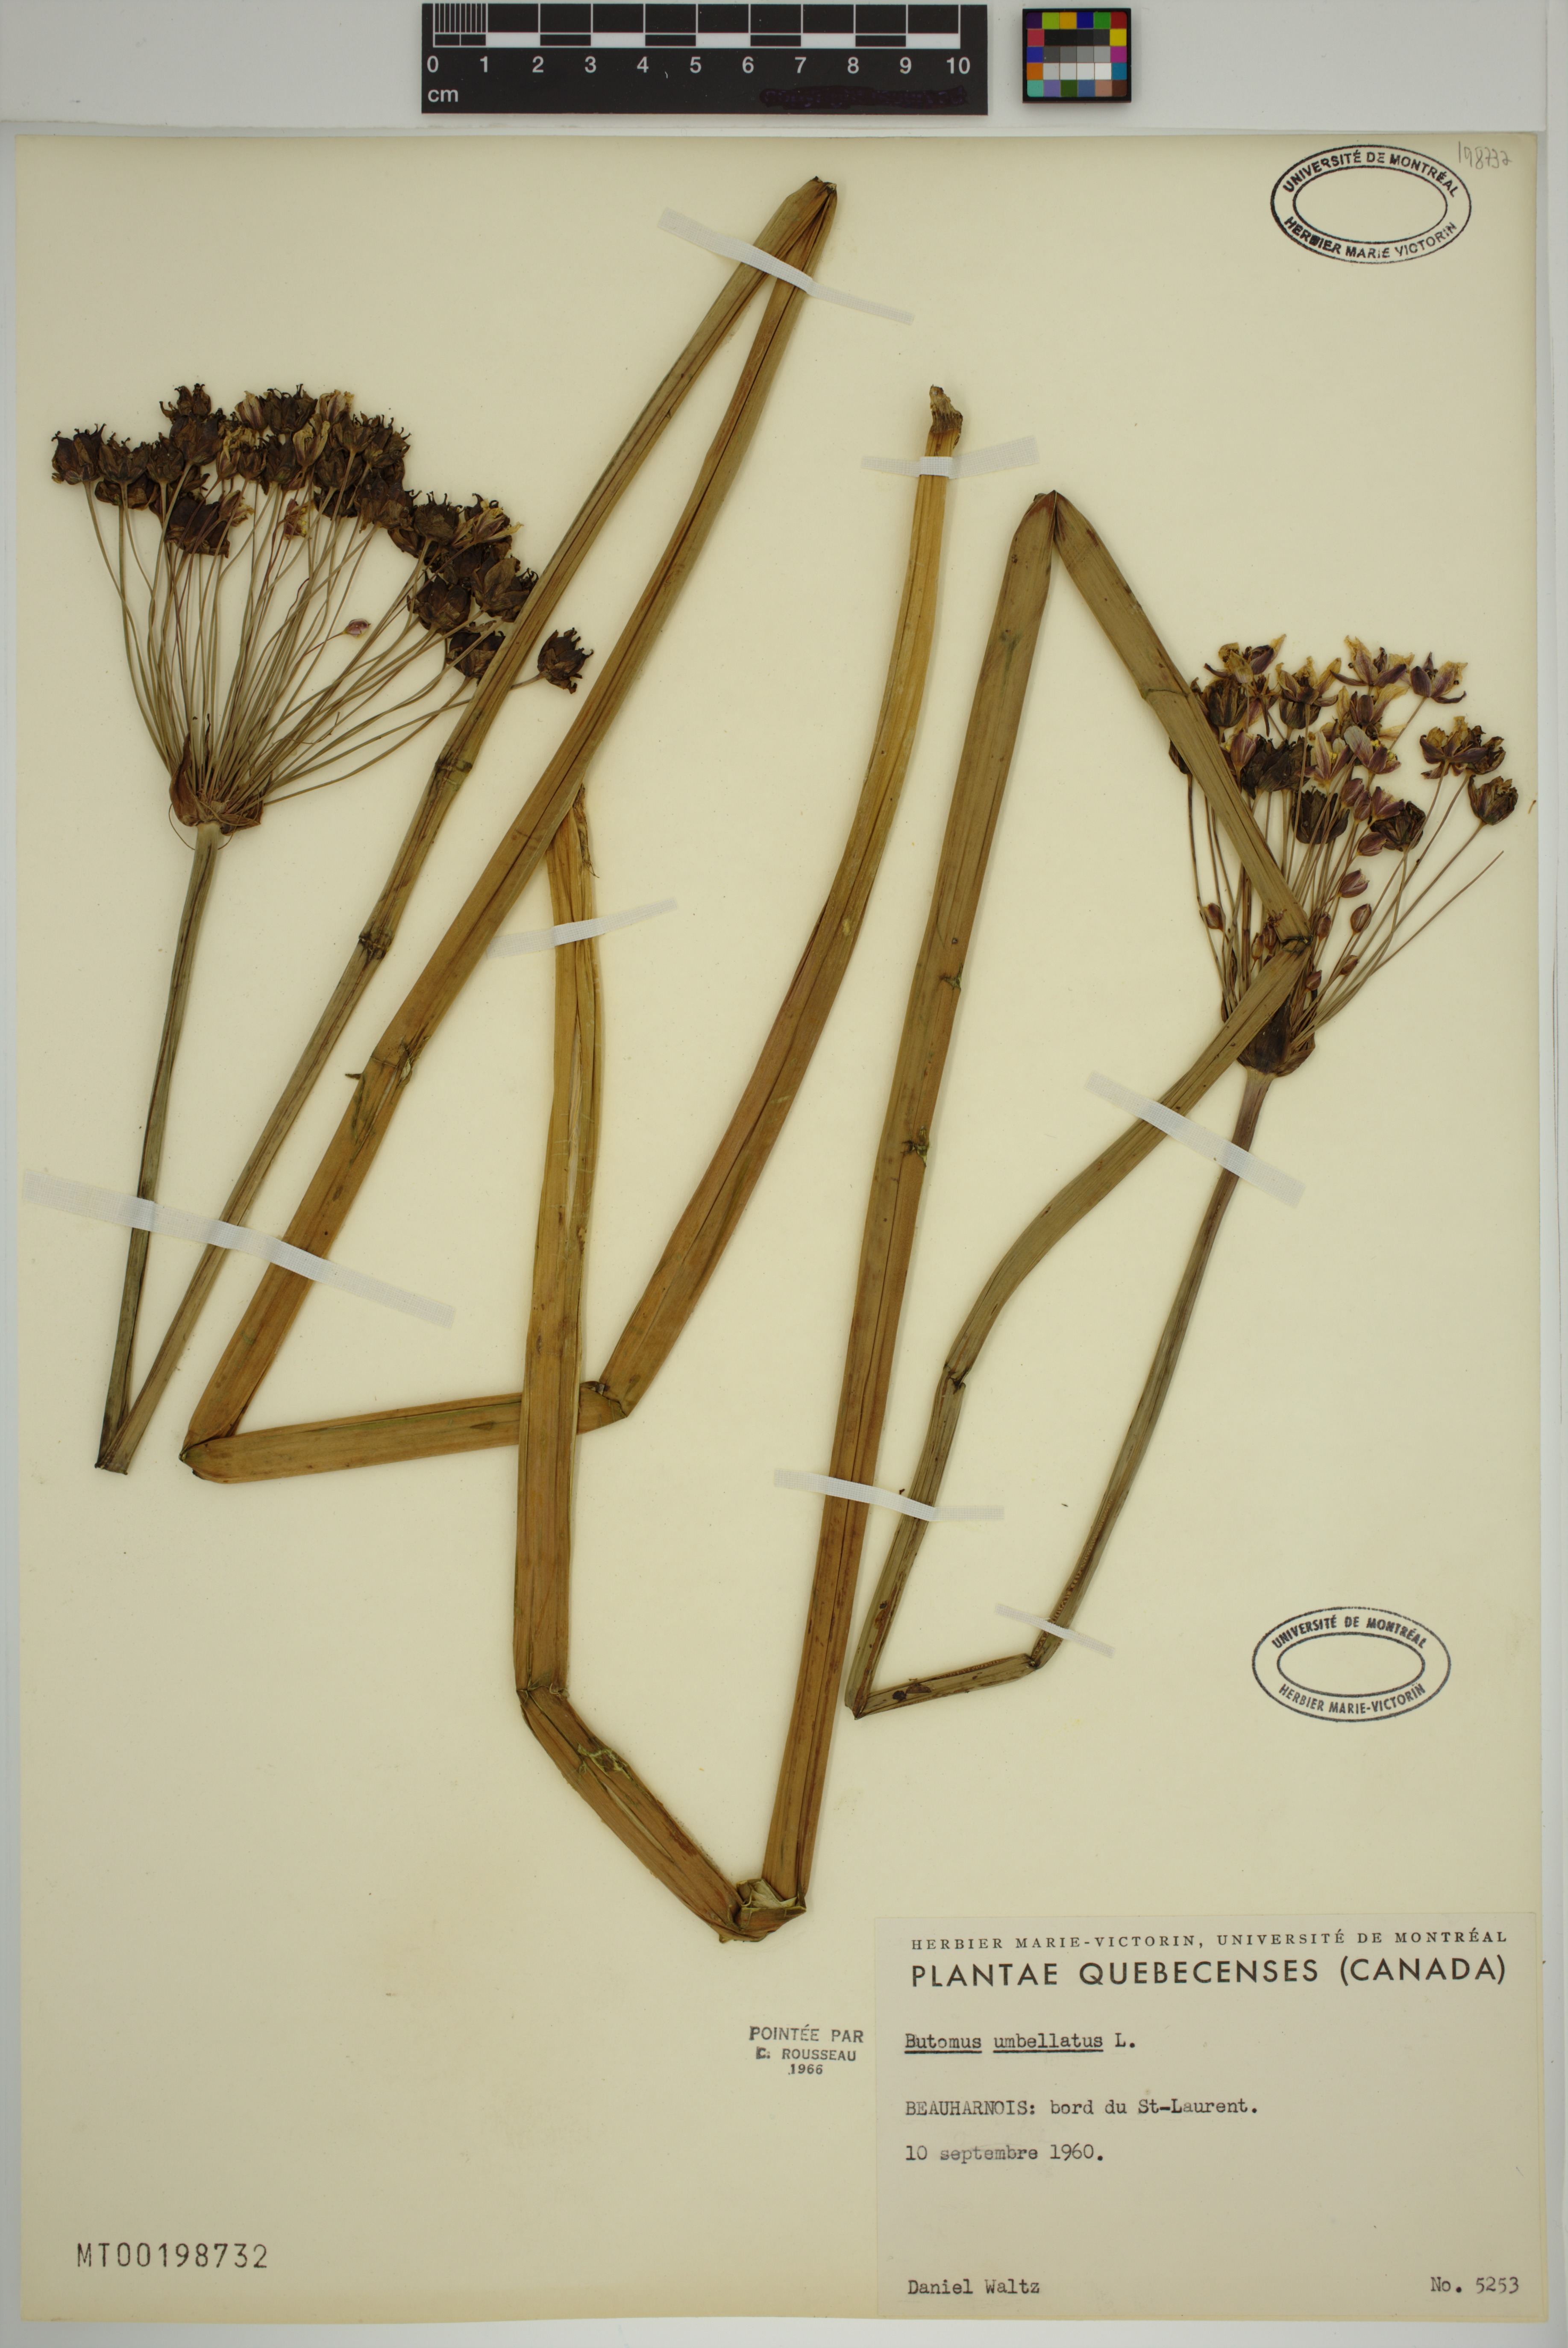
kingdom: Plantae
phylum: Tracheophyta
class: Liliopsida
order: Alismatales
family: Butomaceae
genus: Butomus
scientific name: Butomus umbellatus
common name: Flowering-rush
